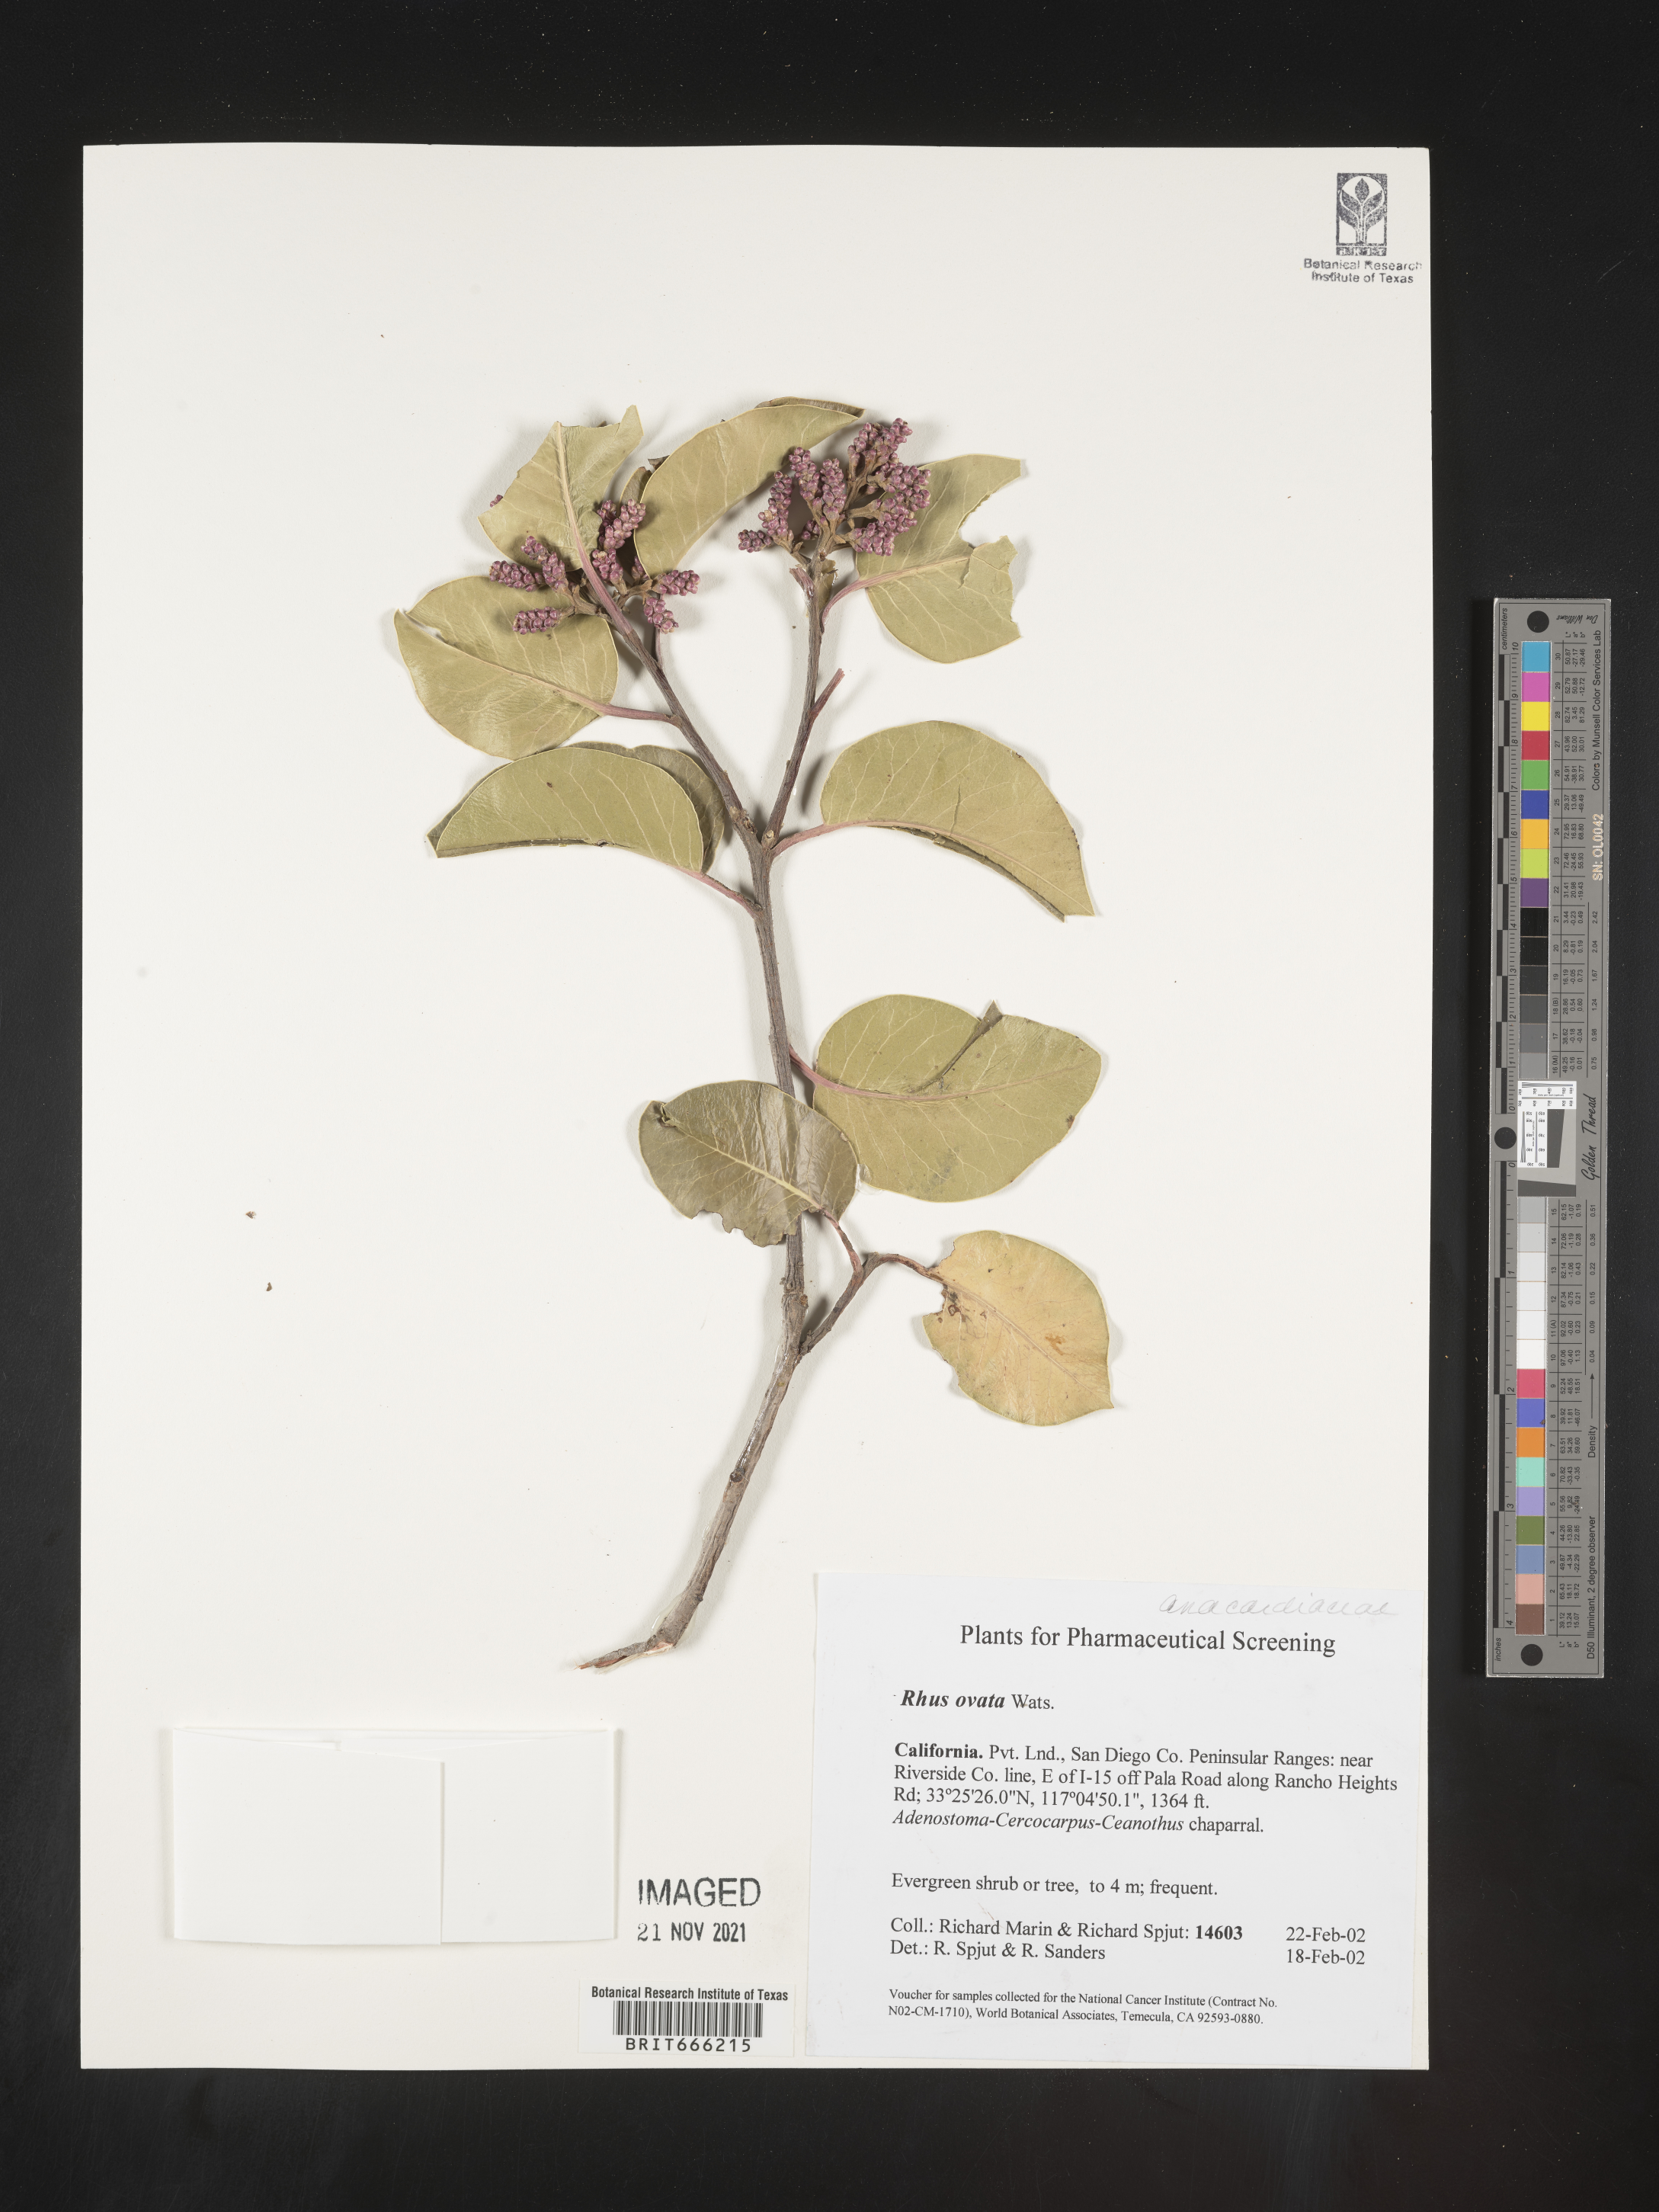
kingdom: Plantae
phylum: Tracheophyta
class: Magnoliopsida
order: Sapindales
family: Anacardiaceae
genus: Rhus
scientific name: Rhus
